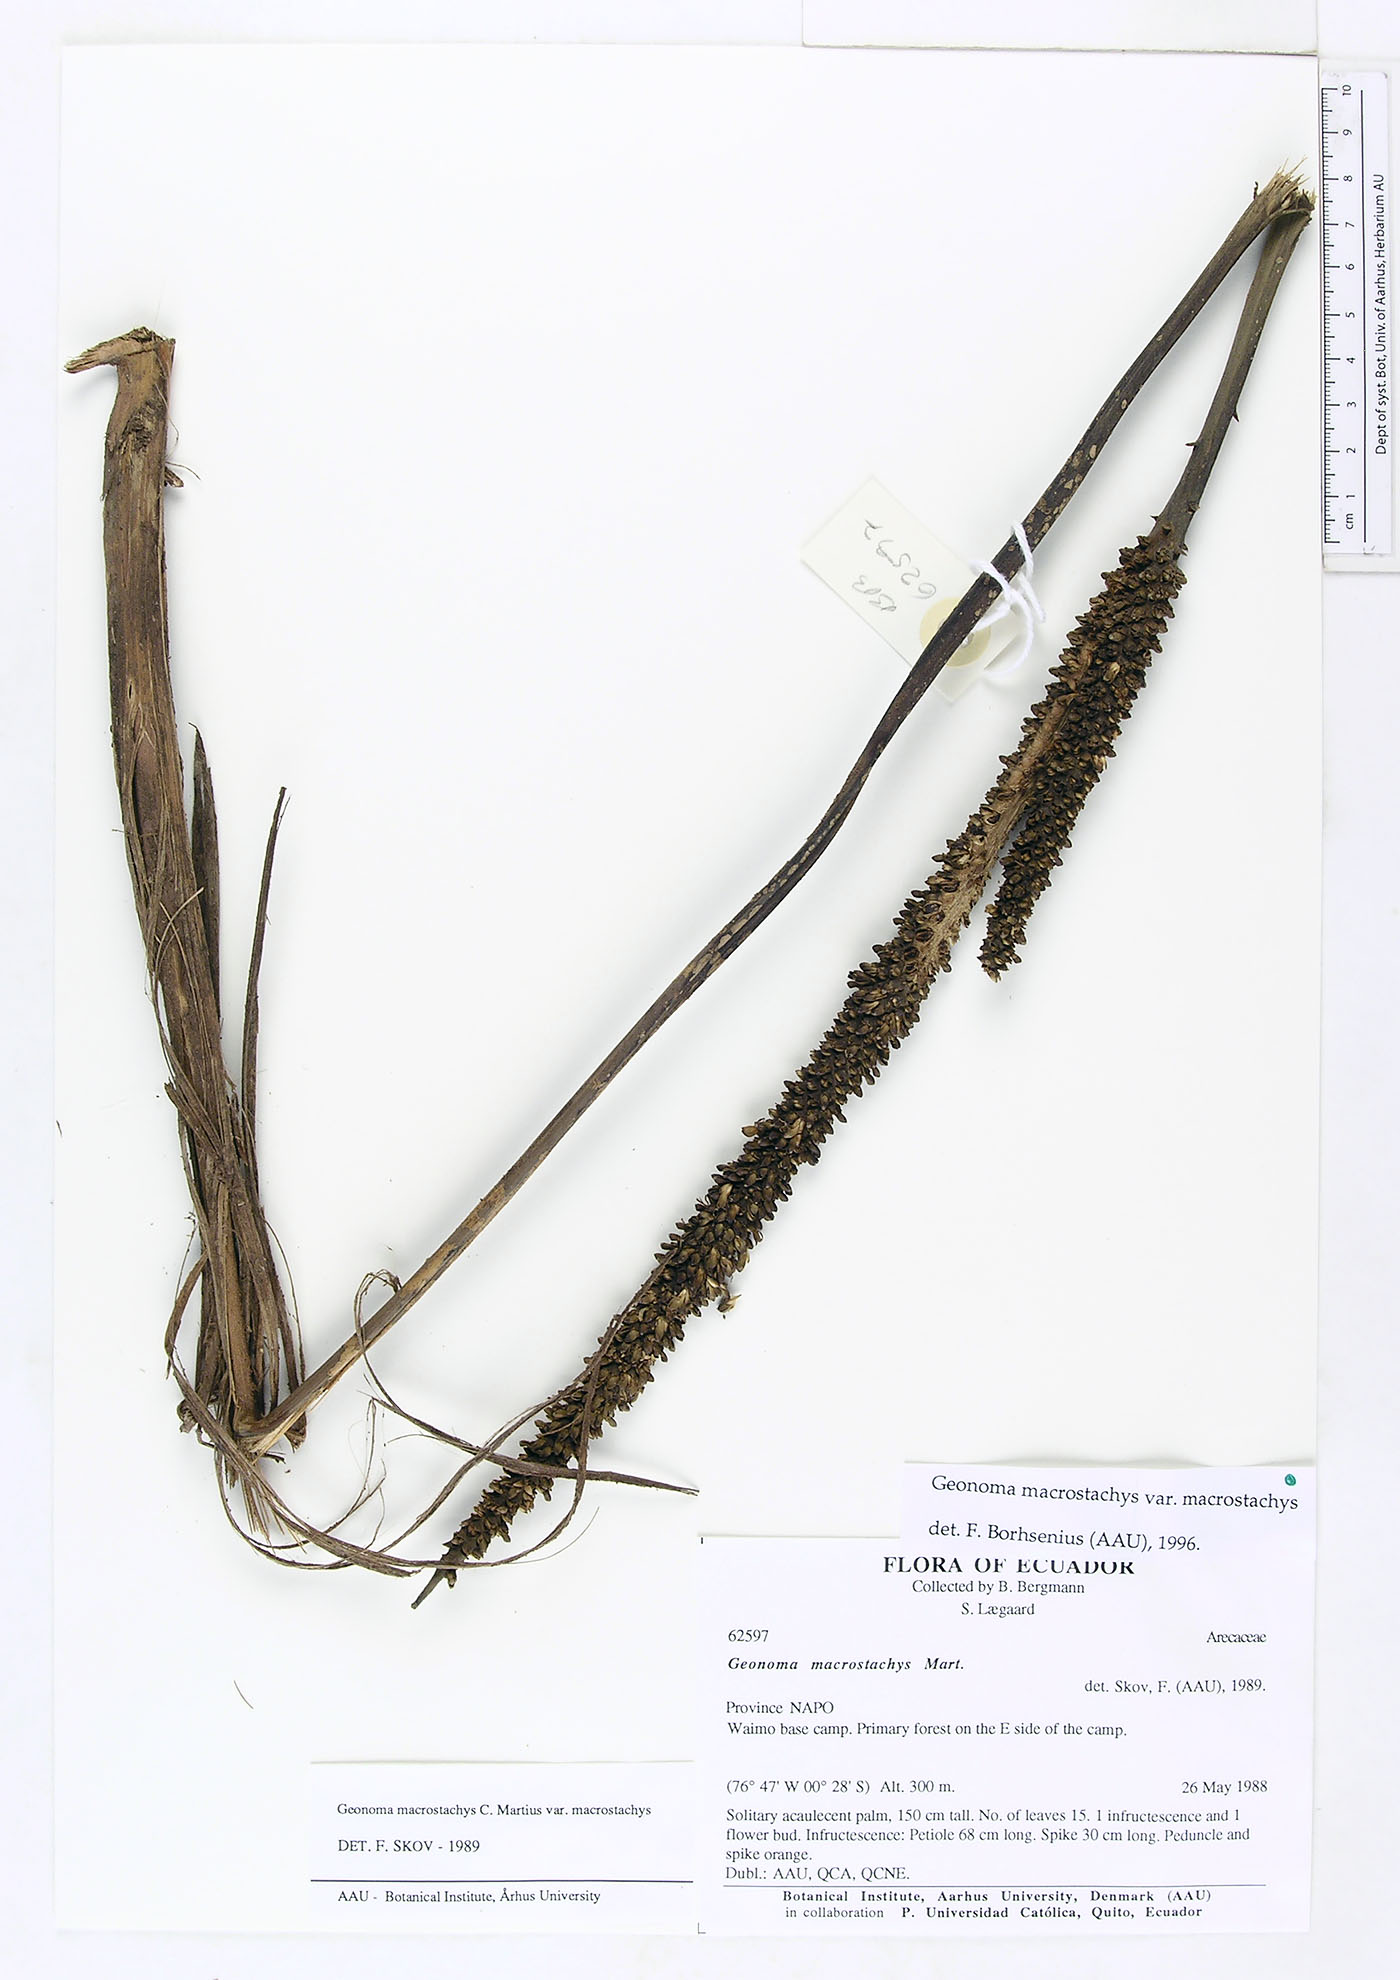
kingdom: Plantae
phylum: Tracheophyta
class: Liliopsida
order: Arecales
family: Arecaceae
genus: Geonoma
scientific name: Geonoma macrostachys
